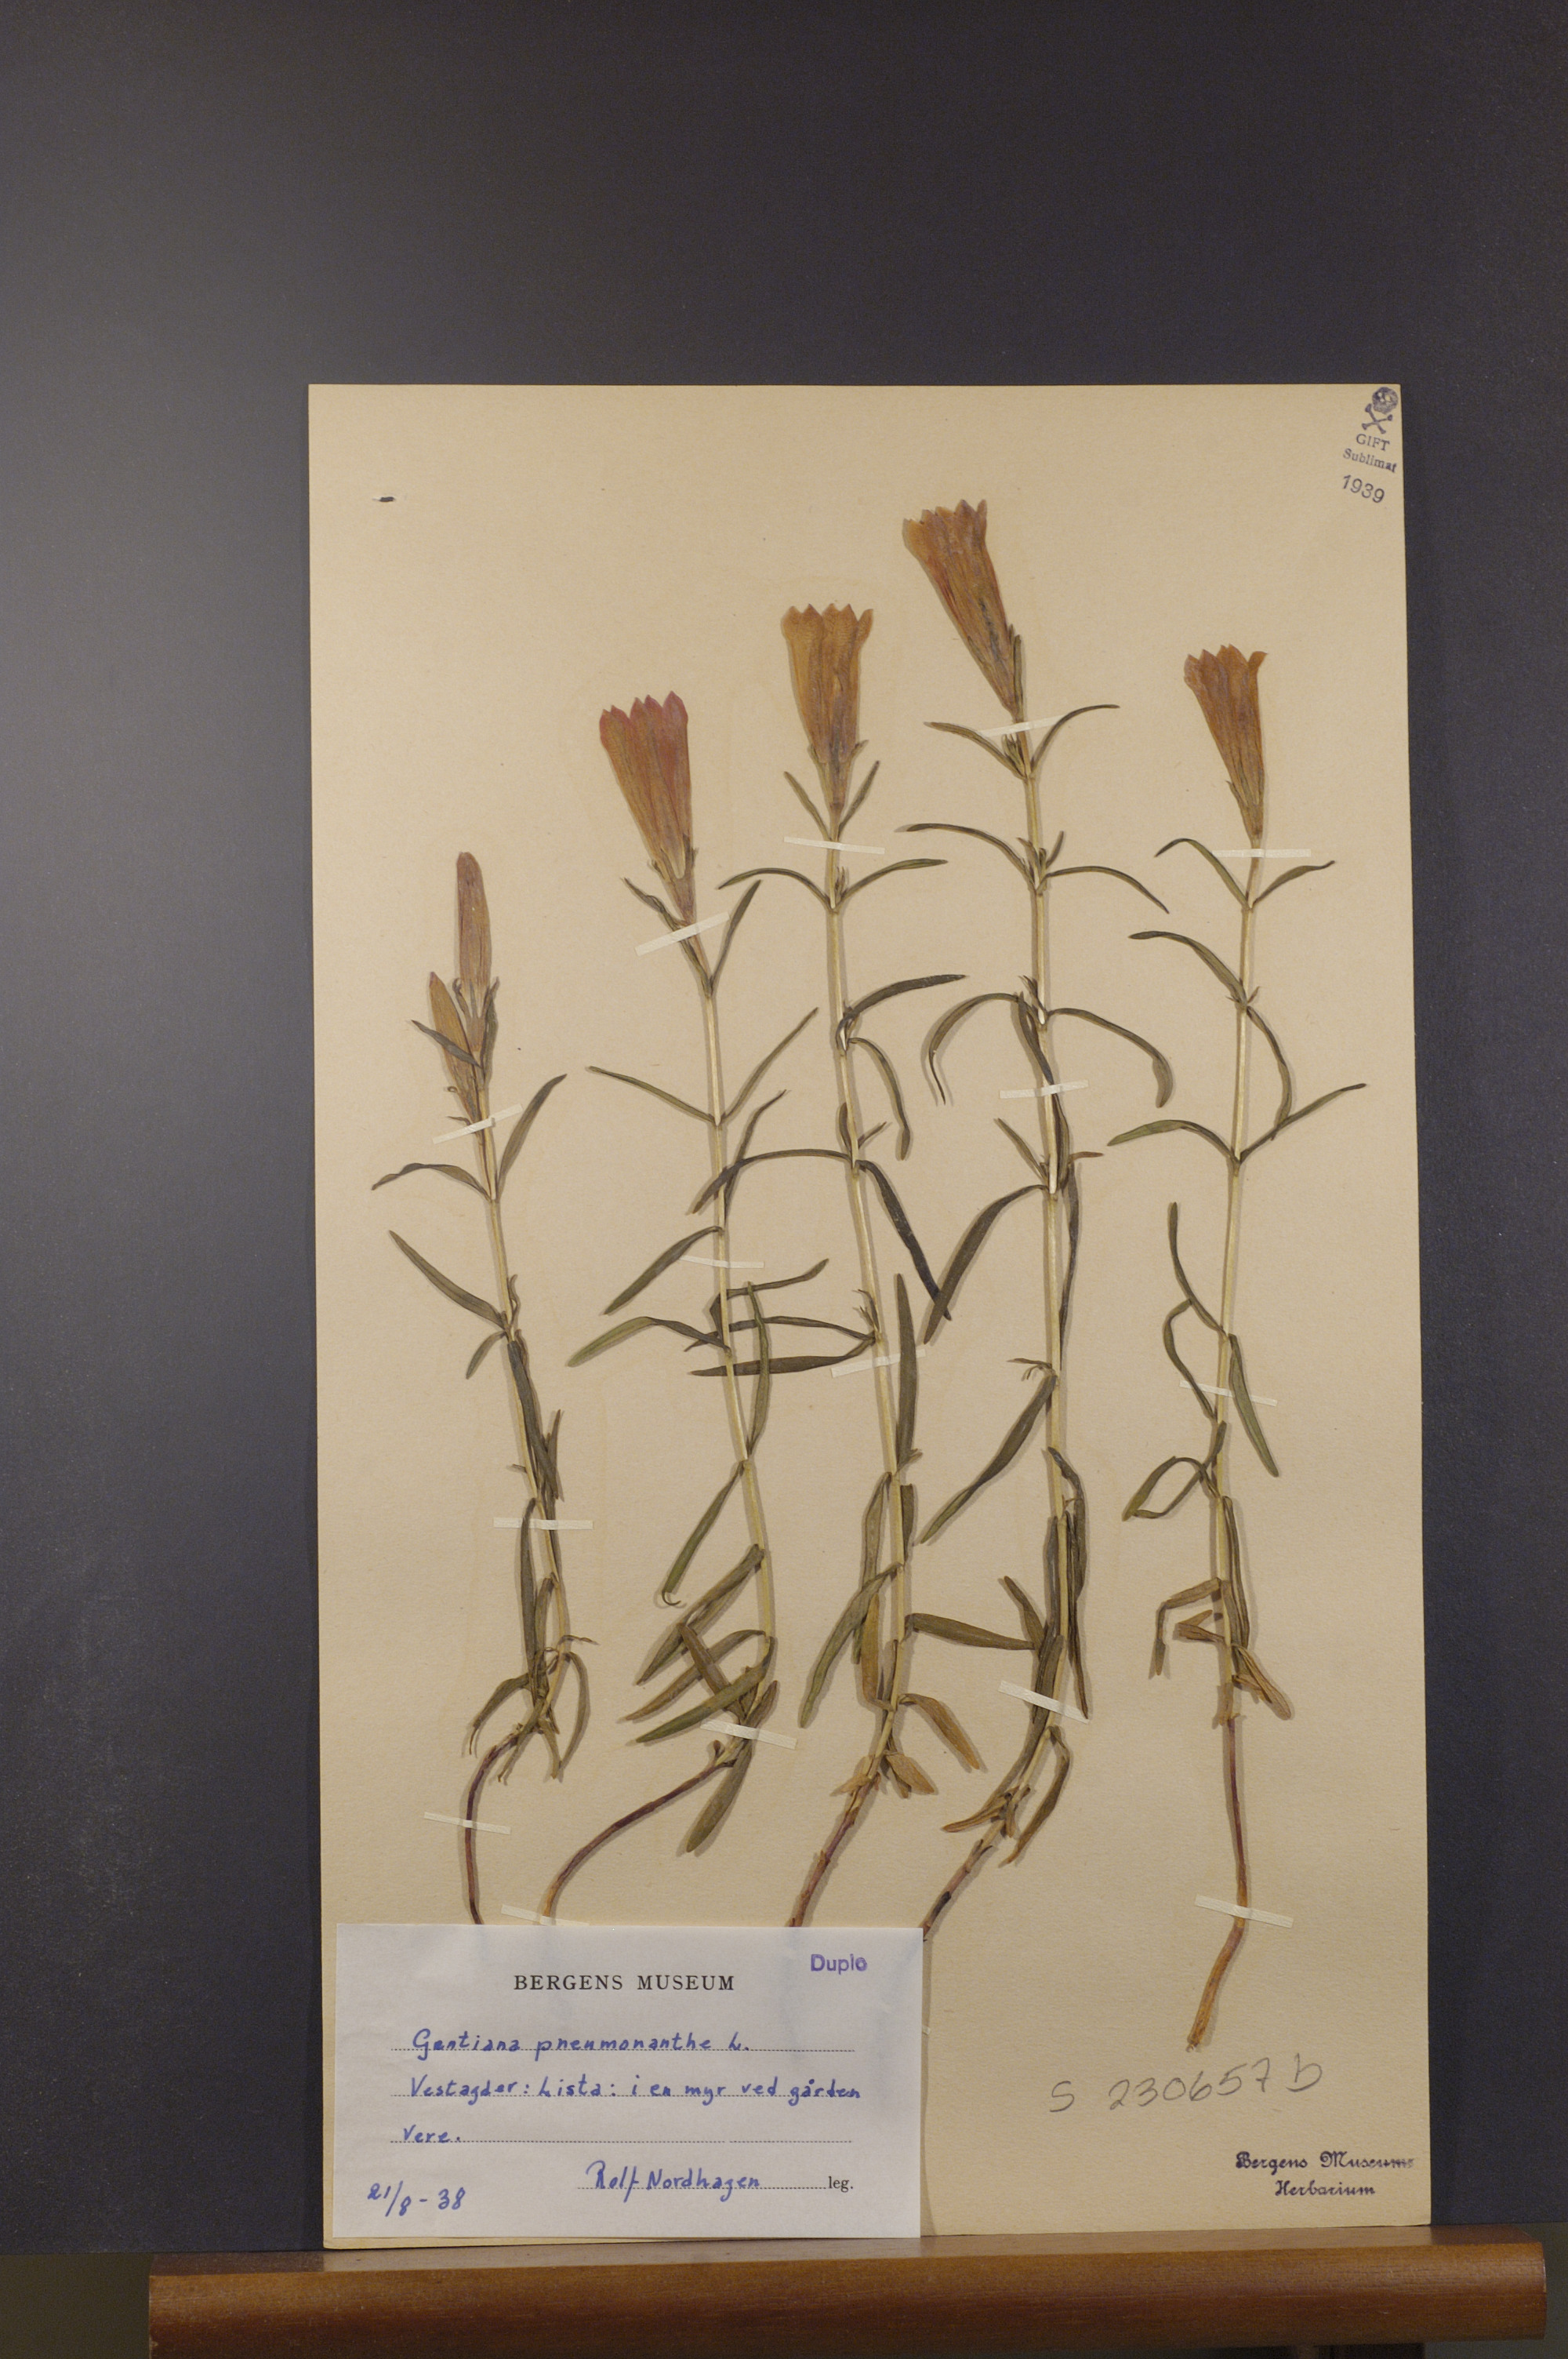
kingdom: Plantae
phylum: Tracheophyta
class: Magnoliopsida
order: Gentianales
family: Gentianaceae
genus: Gentiana
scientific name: Gentiana pneumonanthe
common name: Marsh gentian
